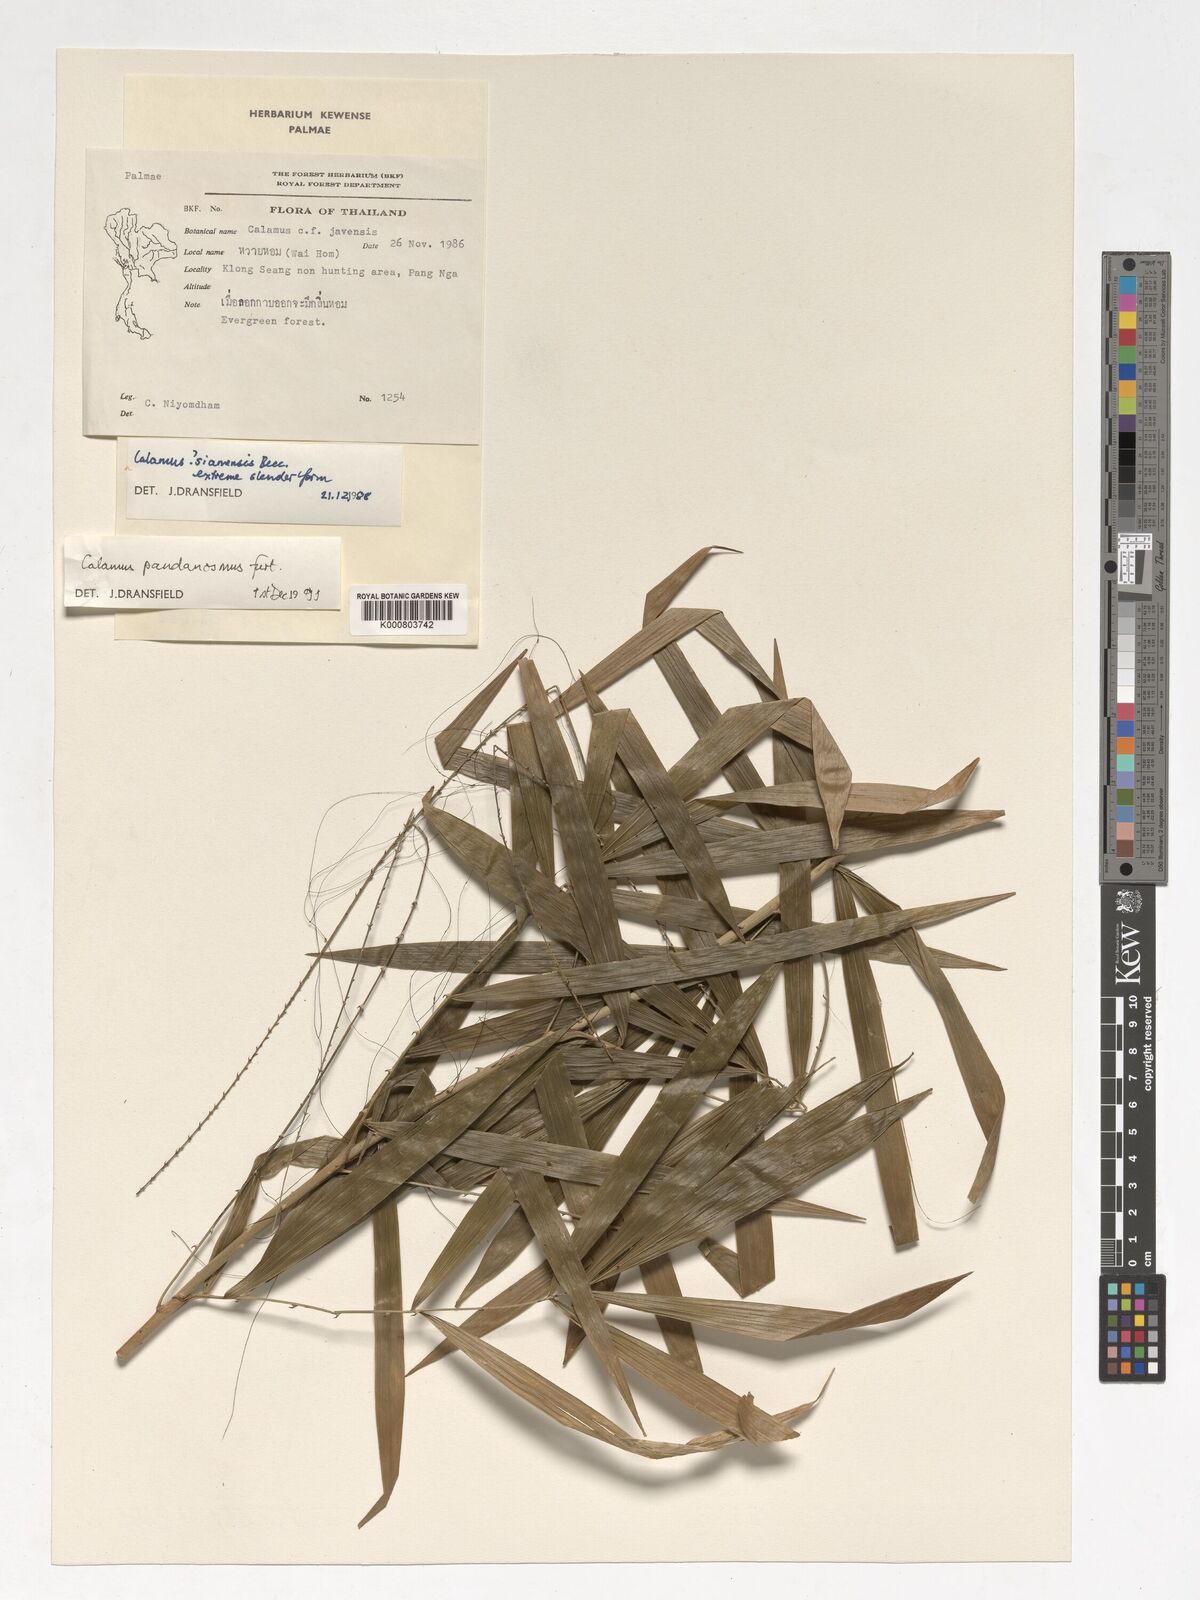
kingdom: Plantae
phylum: Tracheophyta
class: Liliopsida
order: Arecales
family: Arecaceae
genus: Calamus
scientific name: Calamus pandanosmus
